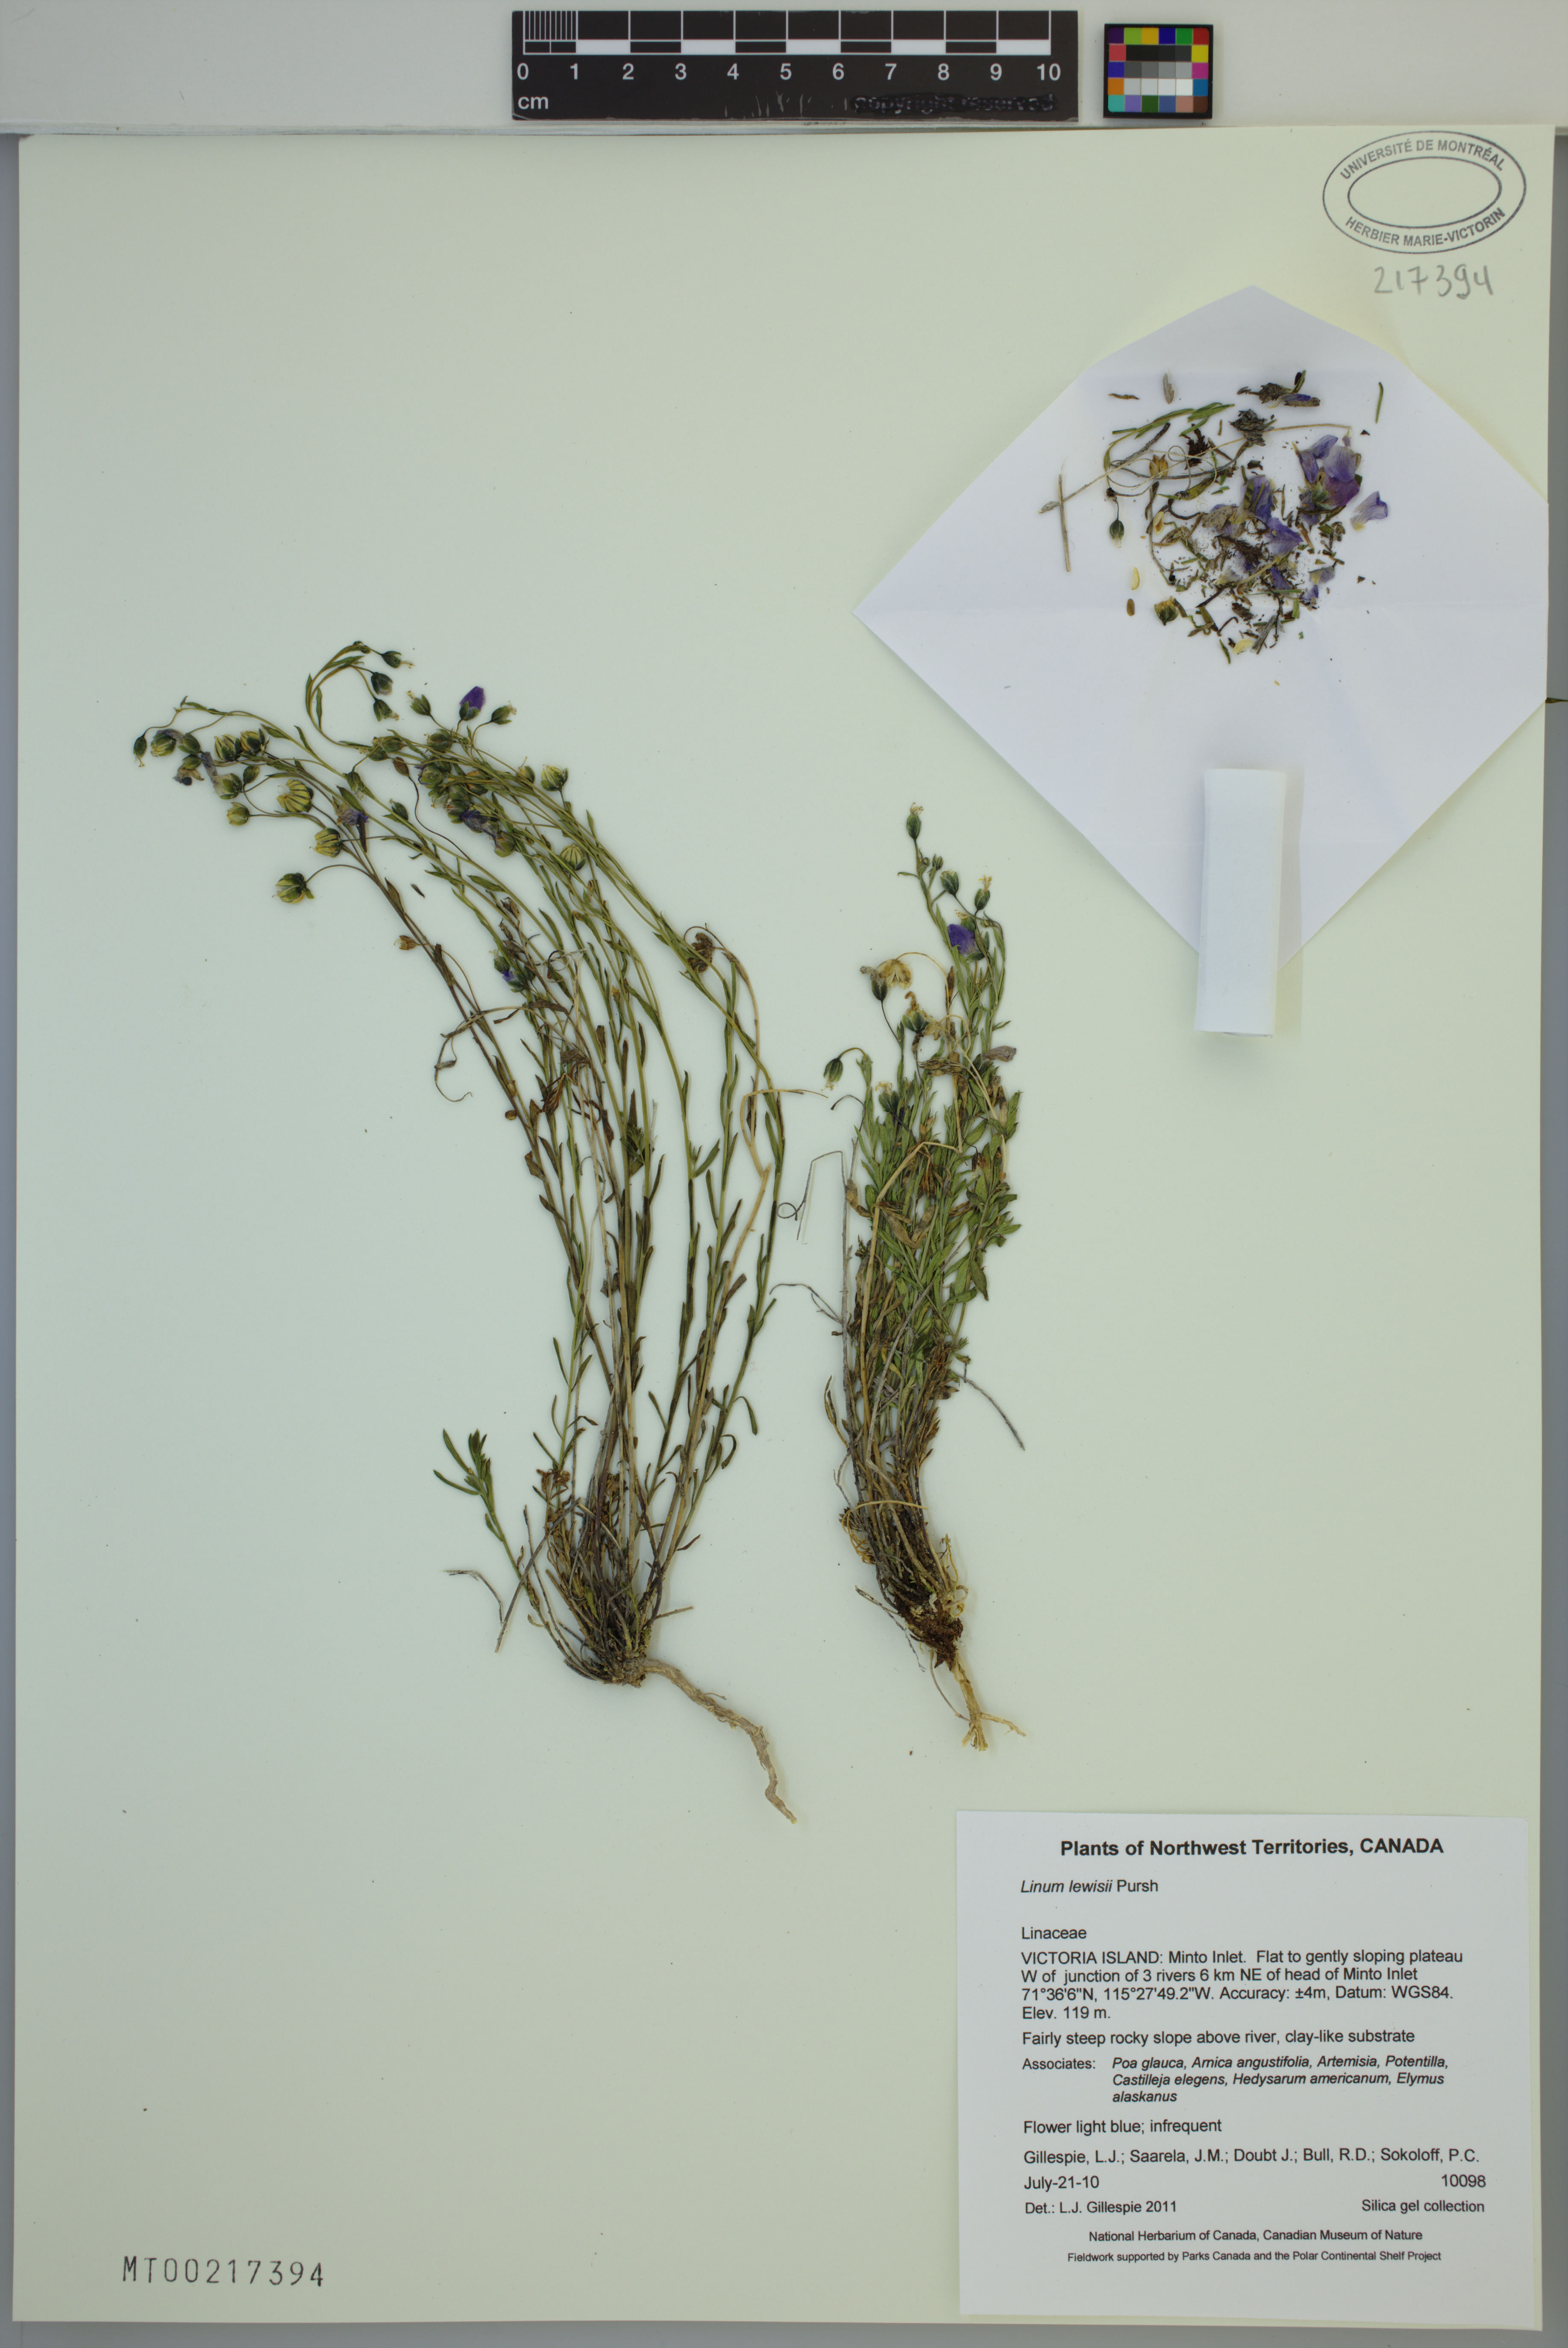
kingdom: Plantae
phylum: Tracheophyta
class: Magnoliopsida
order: Malpighiales
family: Linaceae
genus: Linum
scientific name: Linum lewisii
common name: Prairie flax
